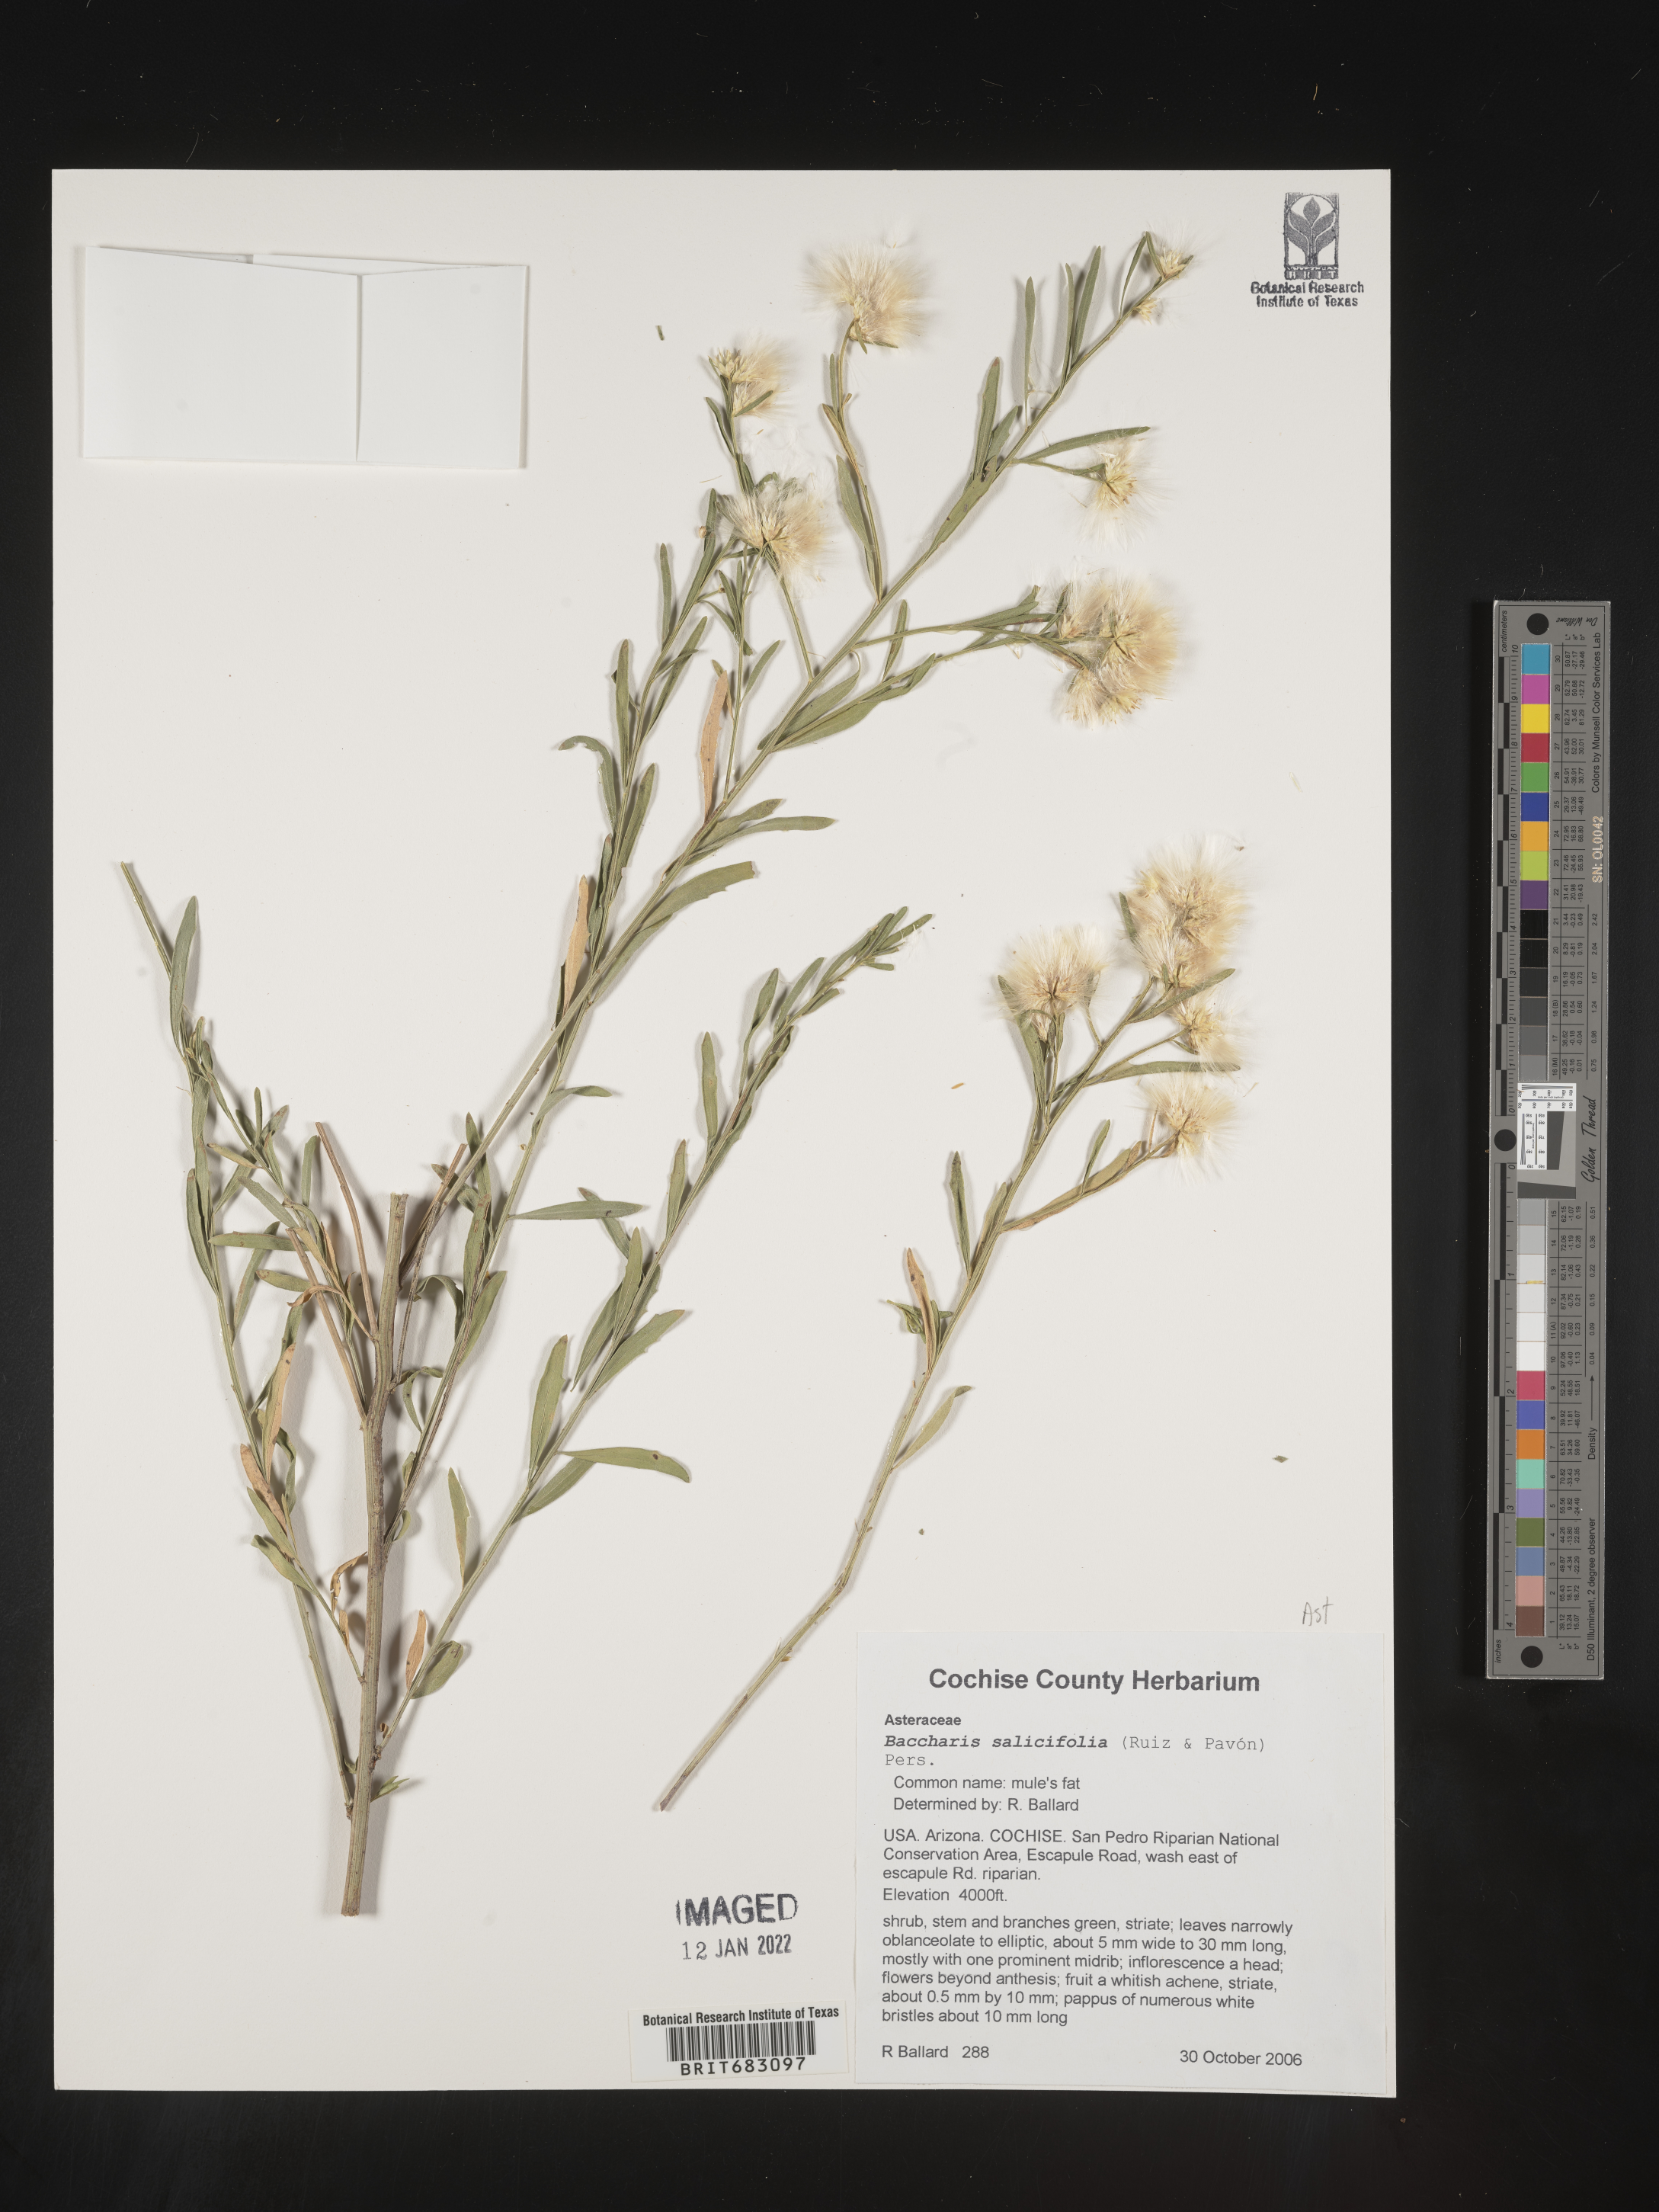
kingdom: Plantae
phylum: Tracheophyta
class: Magnoliopsida
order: Asterales
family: Asteraceae
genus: Baccharis
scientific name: Baccharis salicifolia
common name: Sticky baccharis
